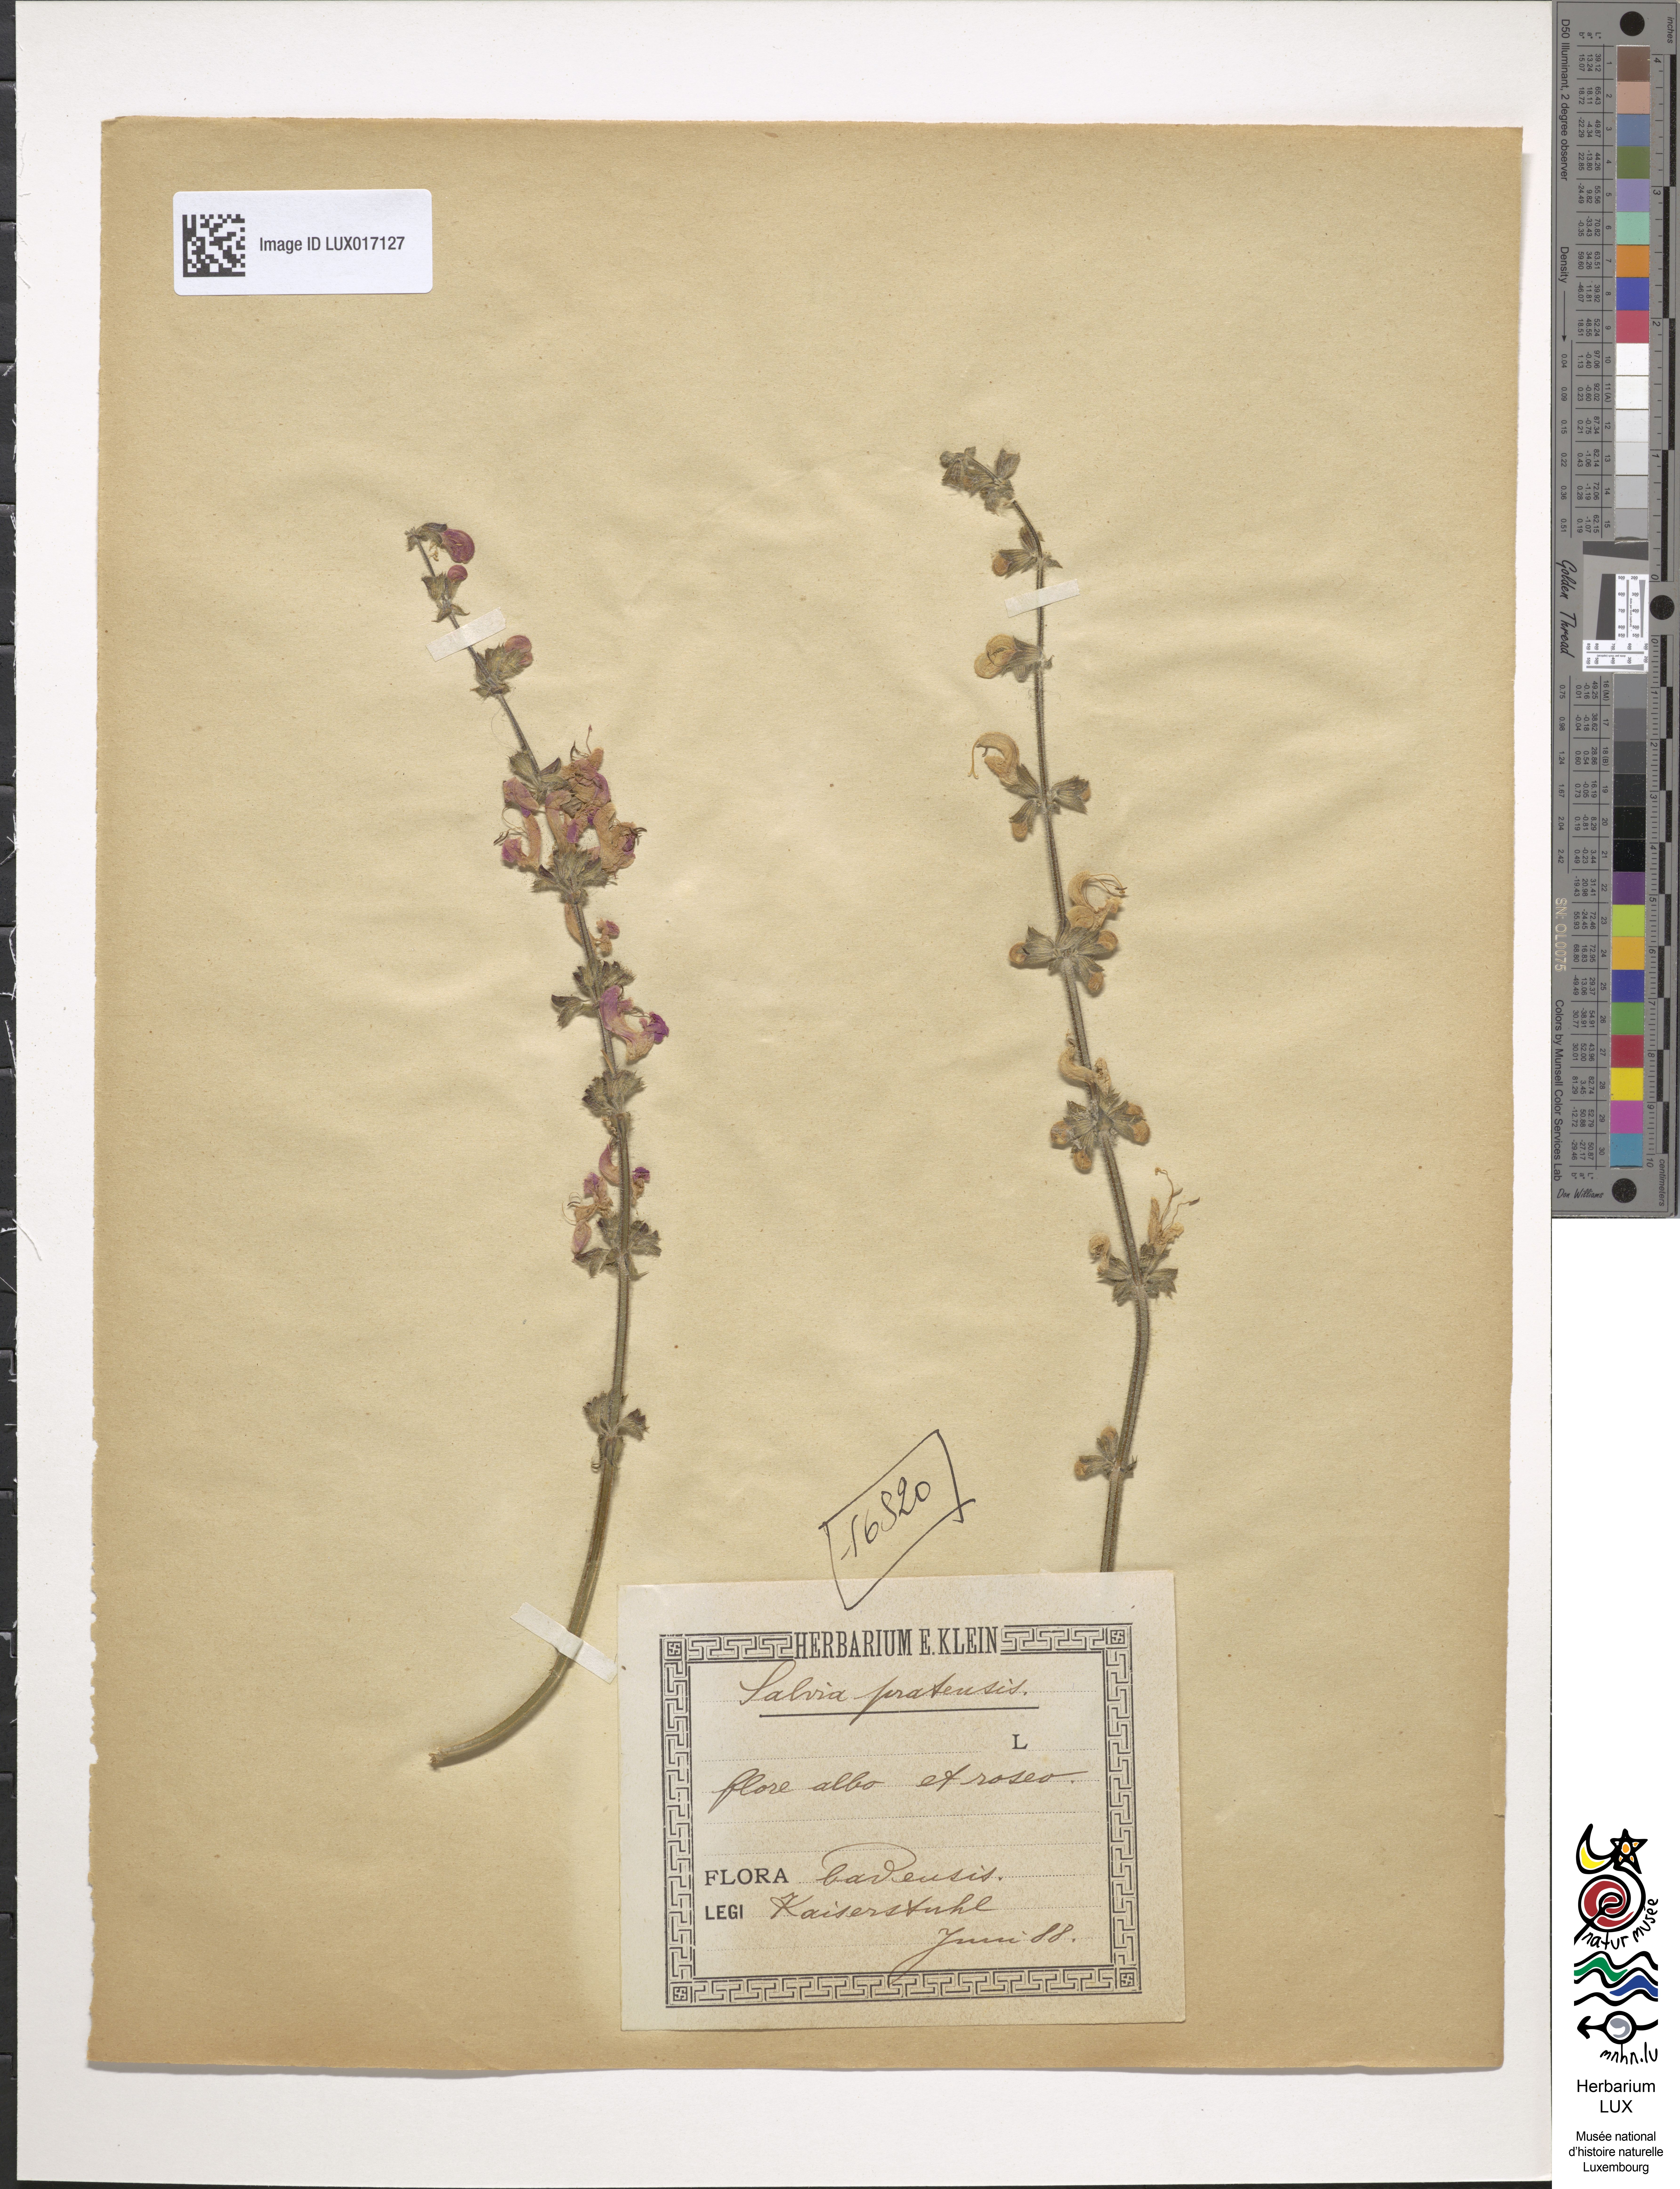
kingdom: Plantae
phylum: Tracheophyta
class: Magnoliopsida
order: Lamiales
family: Lamiaceae
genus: Salvia
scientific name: Salvia pratensis
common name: Meadow sage
